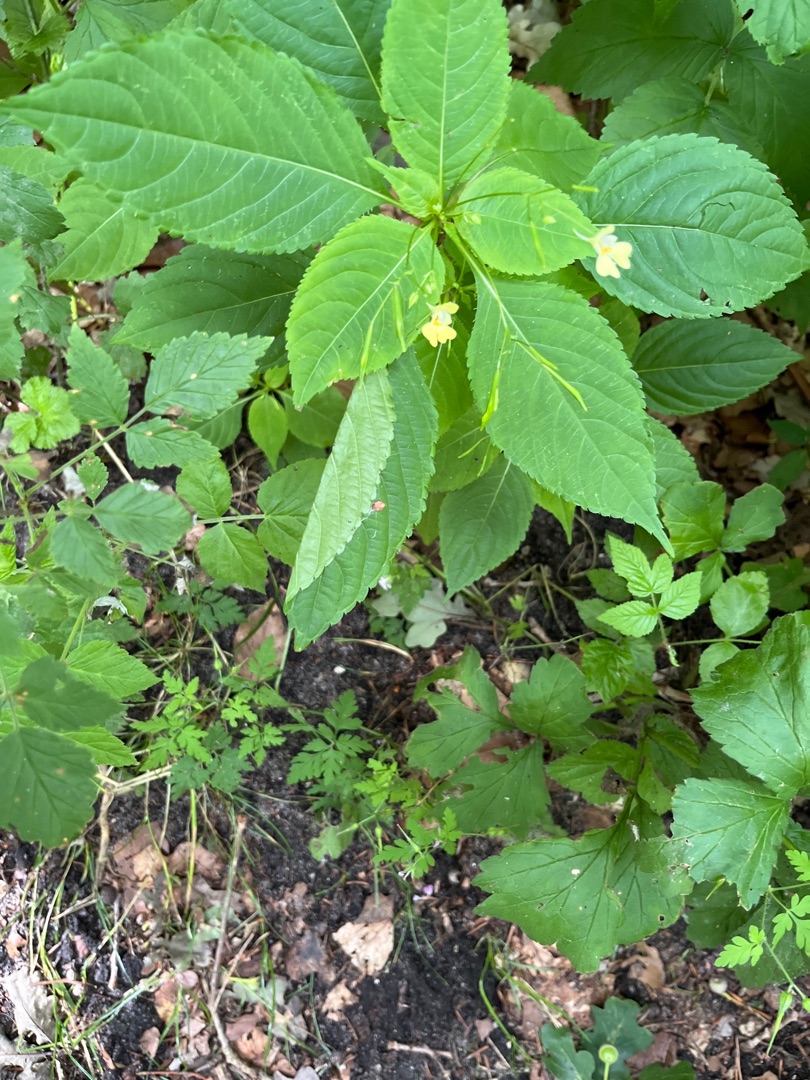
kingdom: Plantae
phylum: Tracheophyta
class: Magnoliopsida
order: Ericales
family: Balsaminaceae
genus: Impatiens
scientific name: Impatiens parviflora
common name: Småblomstret balsamin
